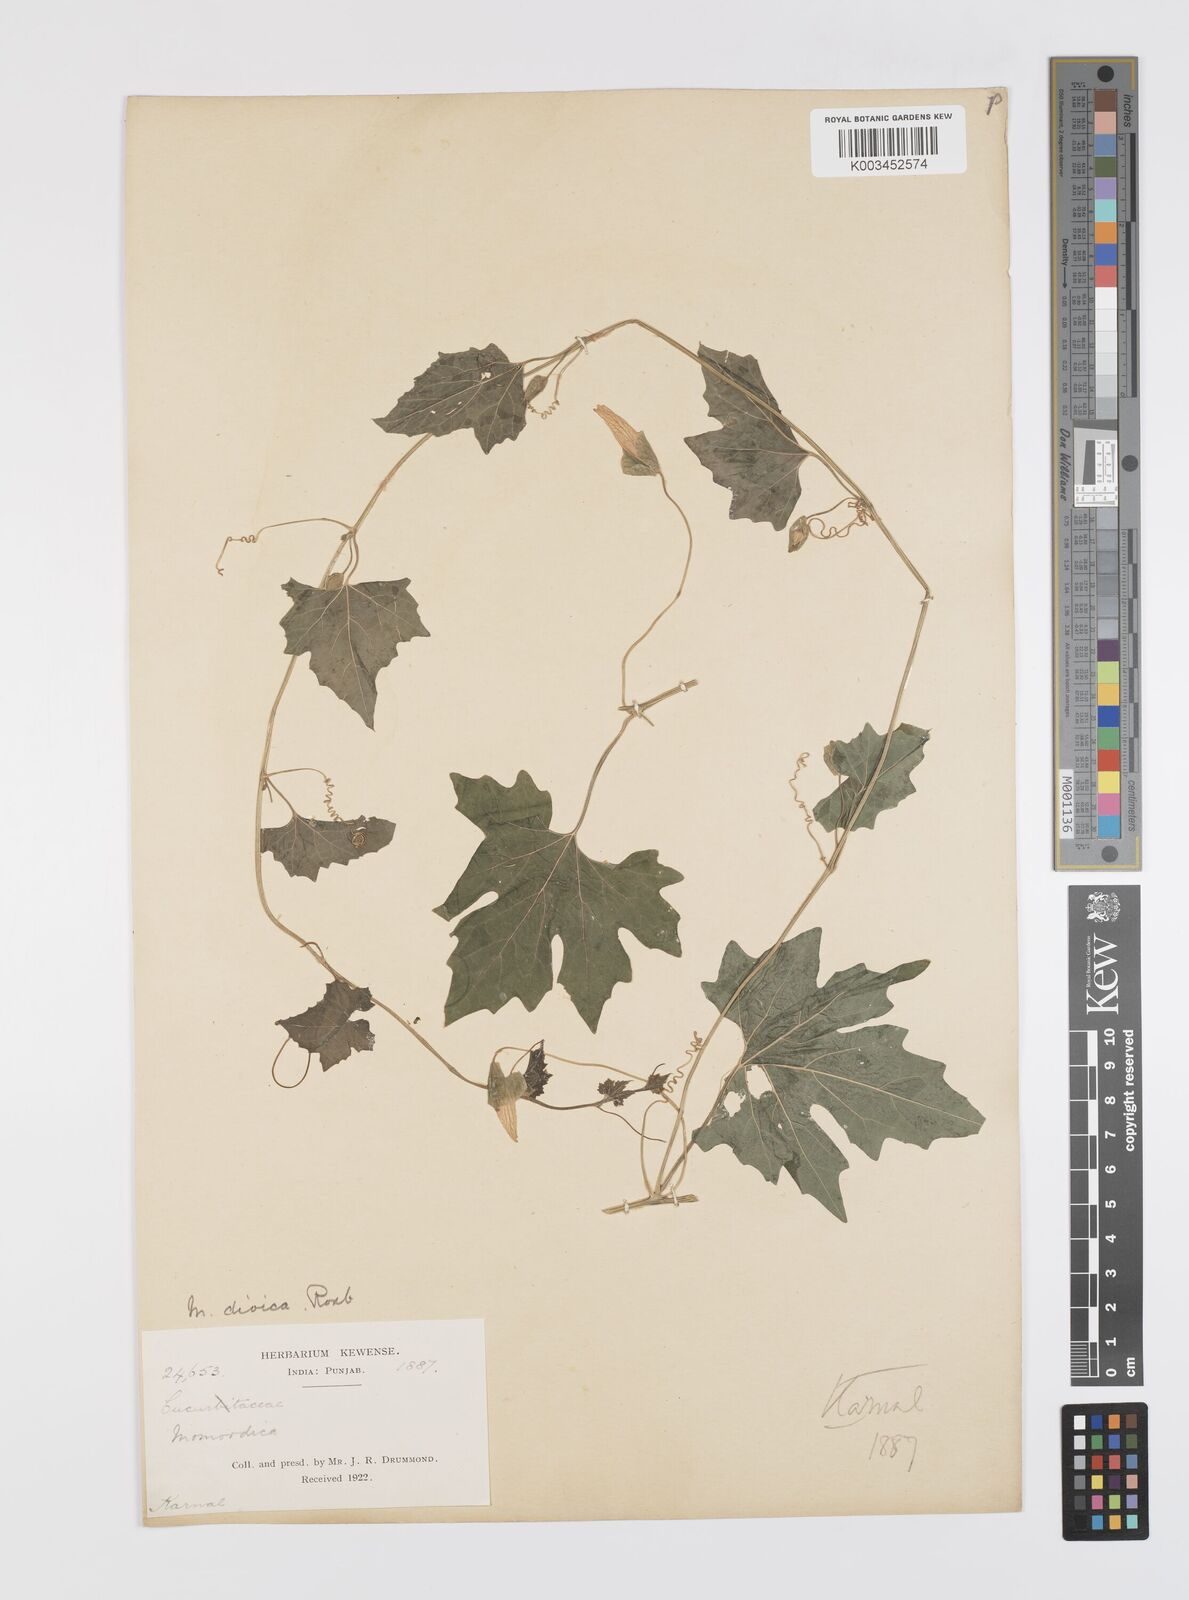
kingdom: Plantae
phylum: Tracheophyta
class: Magnoliopsida
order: Cucurbitales
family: Cucurbitaceae
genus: Momordica
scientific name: Momordica dioica
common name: Spine gourd
